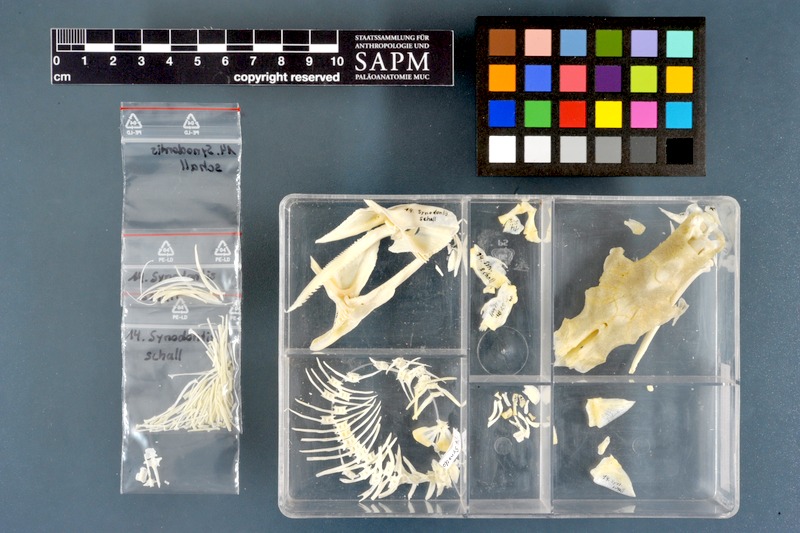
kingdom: Animalia
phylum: Chordata
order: Siluriformes
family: Mochokidae
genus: Synodontis
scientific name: Synodontis schall
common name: Wahrindi
